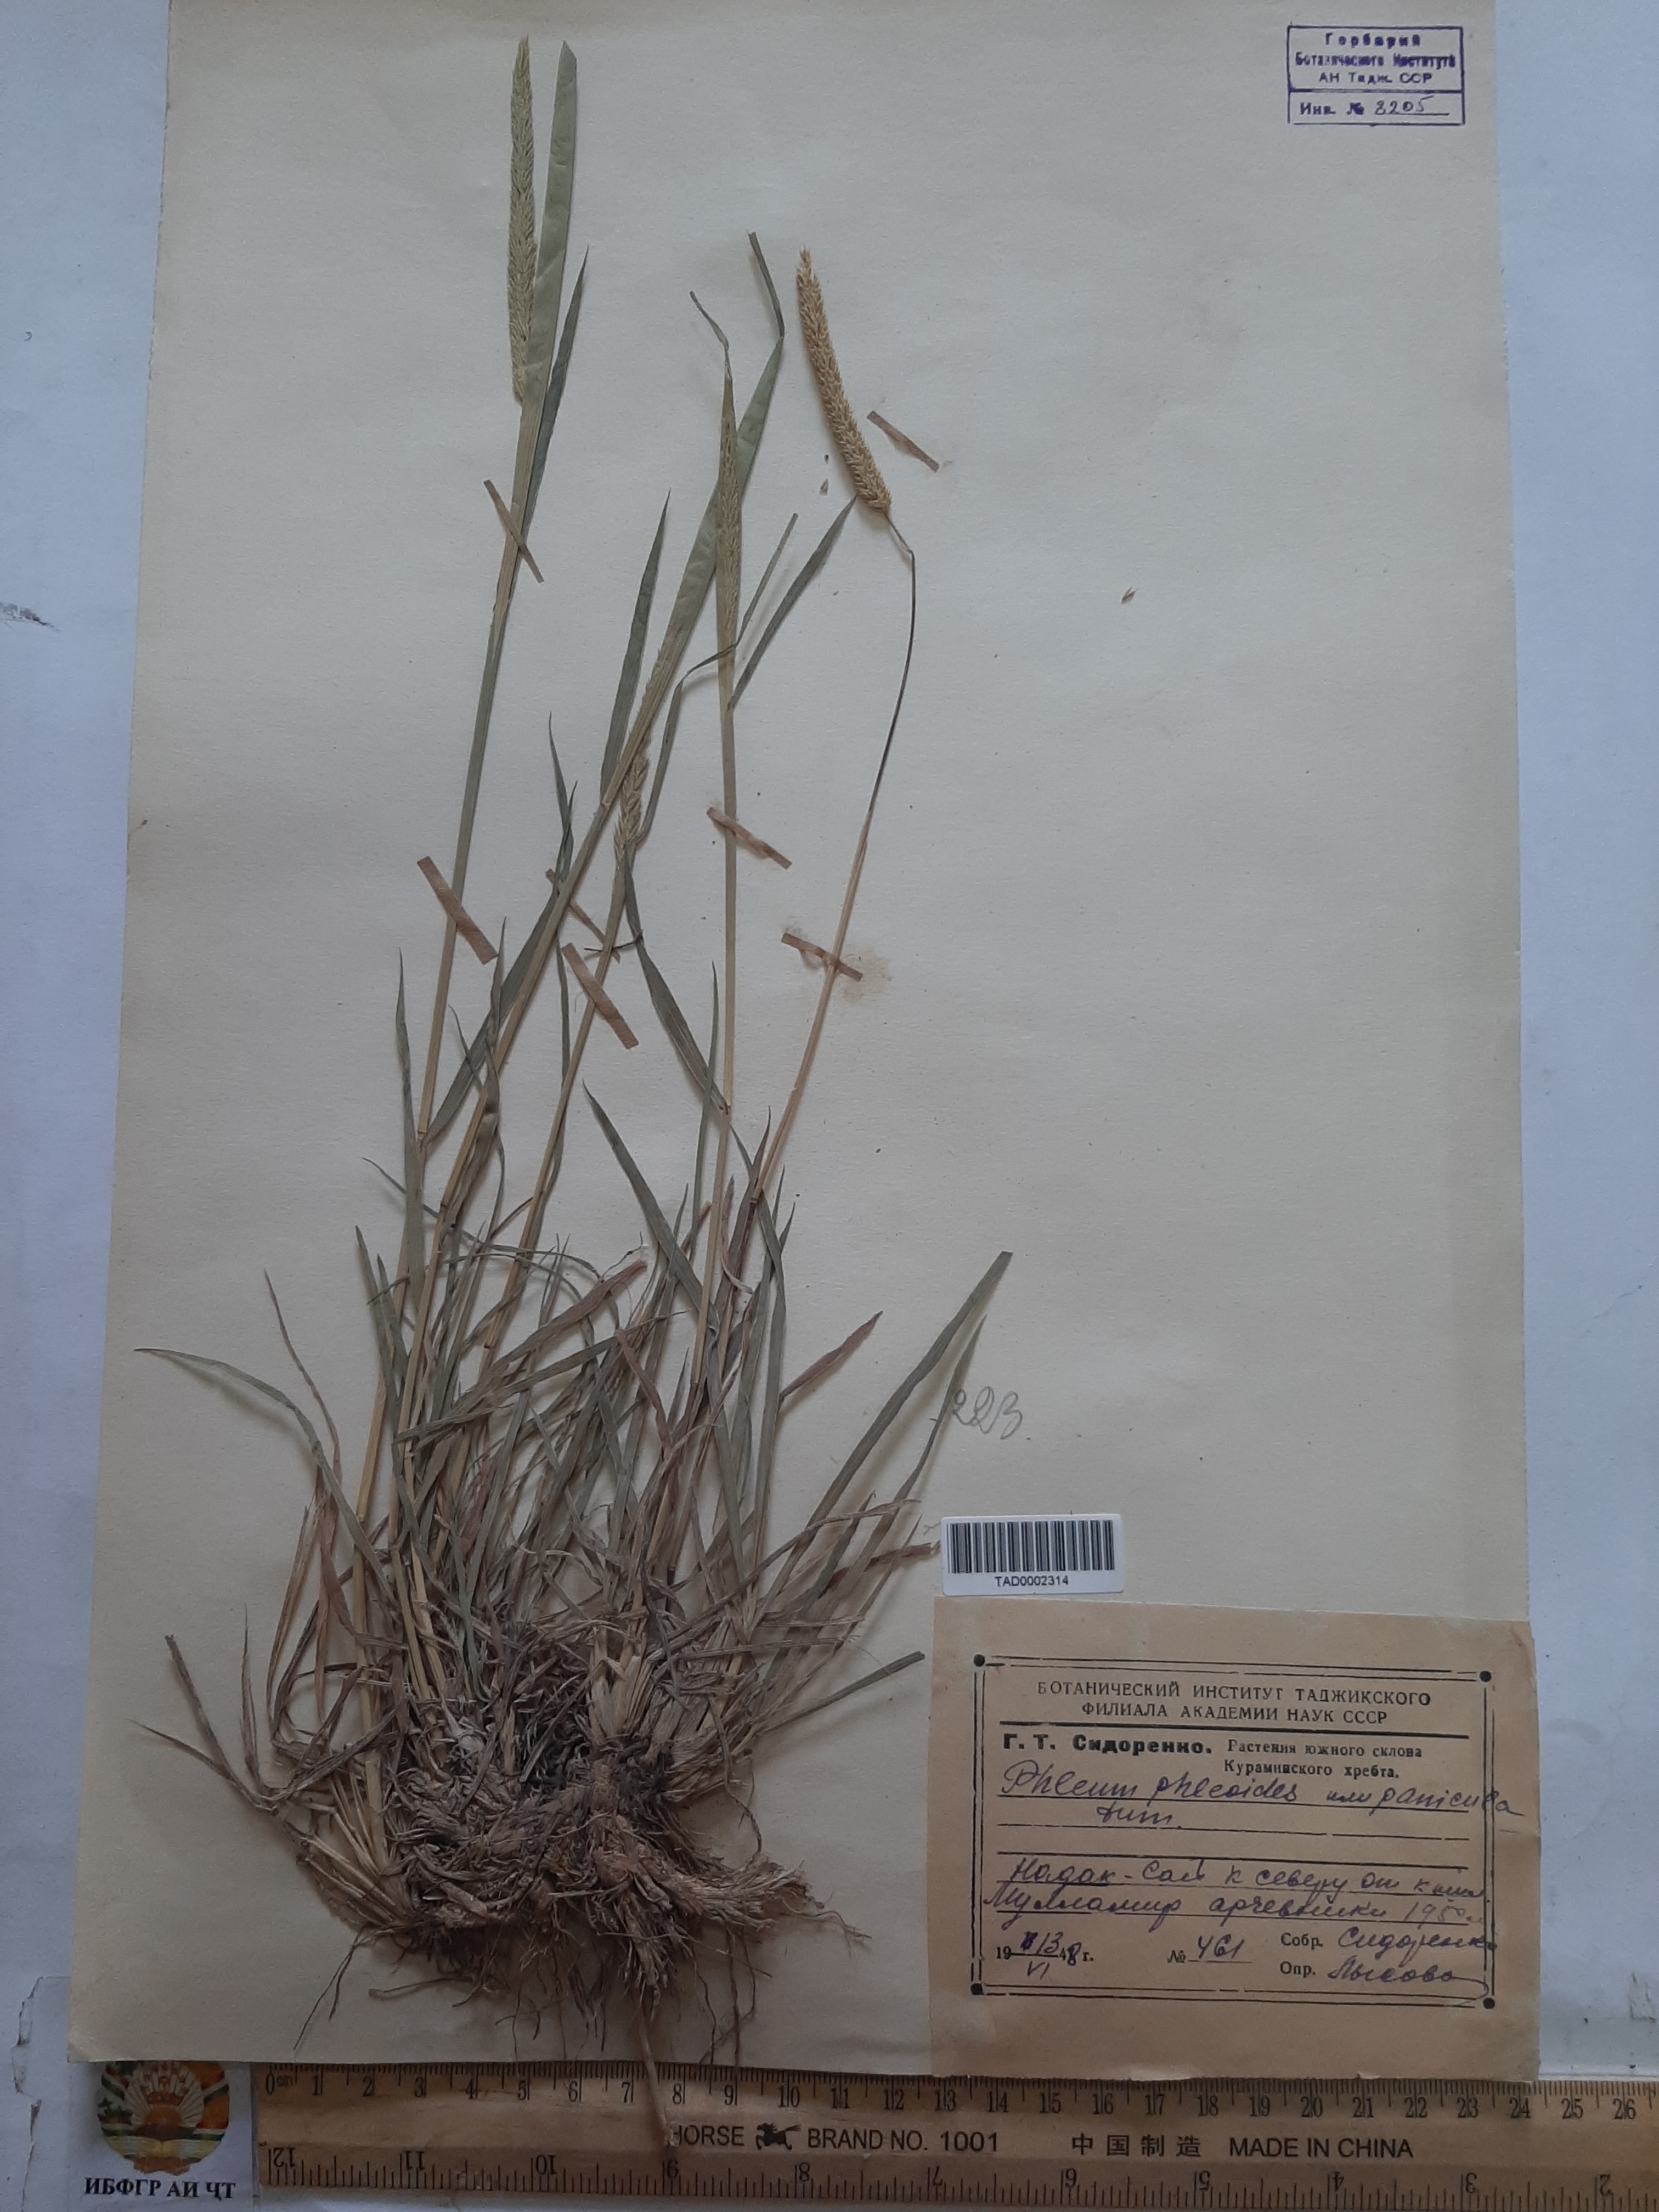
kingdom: Plantae
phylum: Tracheophyta
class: Liliopsida
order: Poales
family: Poaceae
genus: Phleum
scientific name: Phleum paniculatum
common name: British timothy
